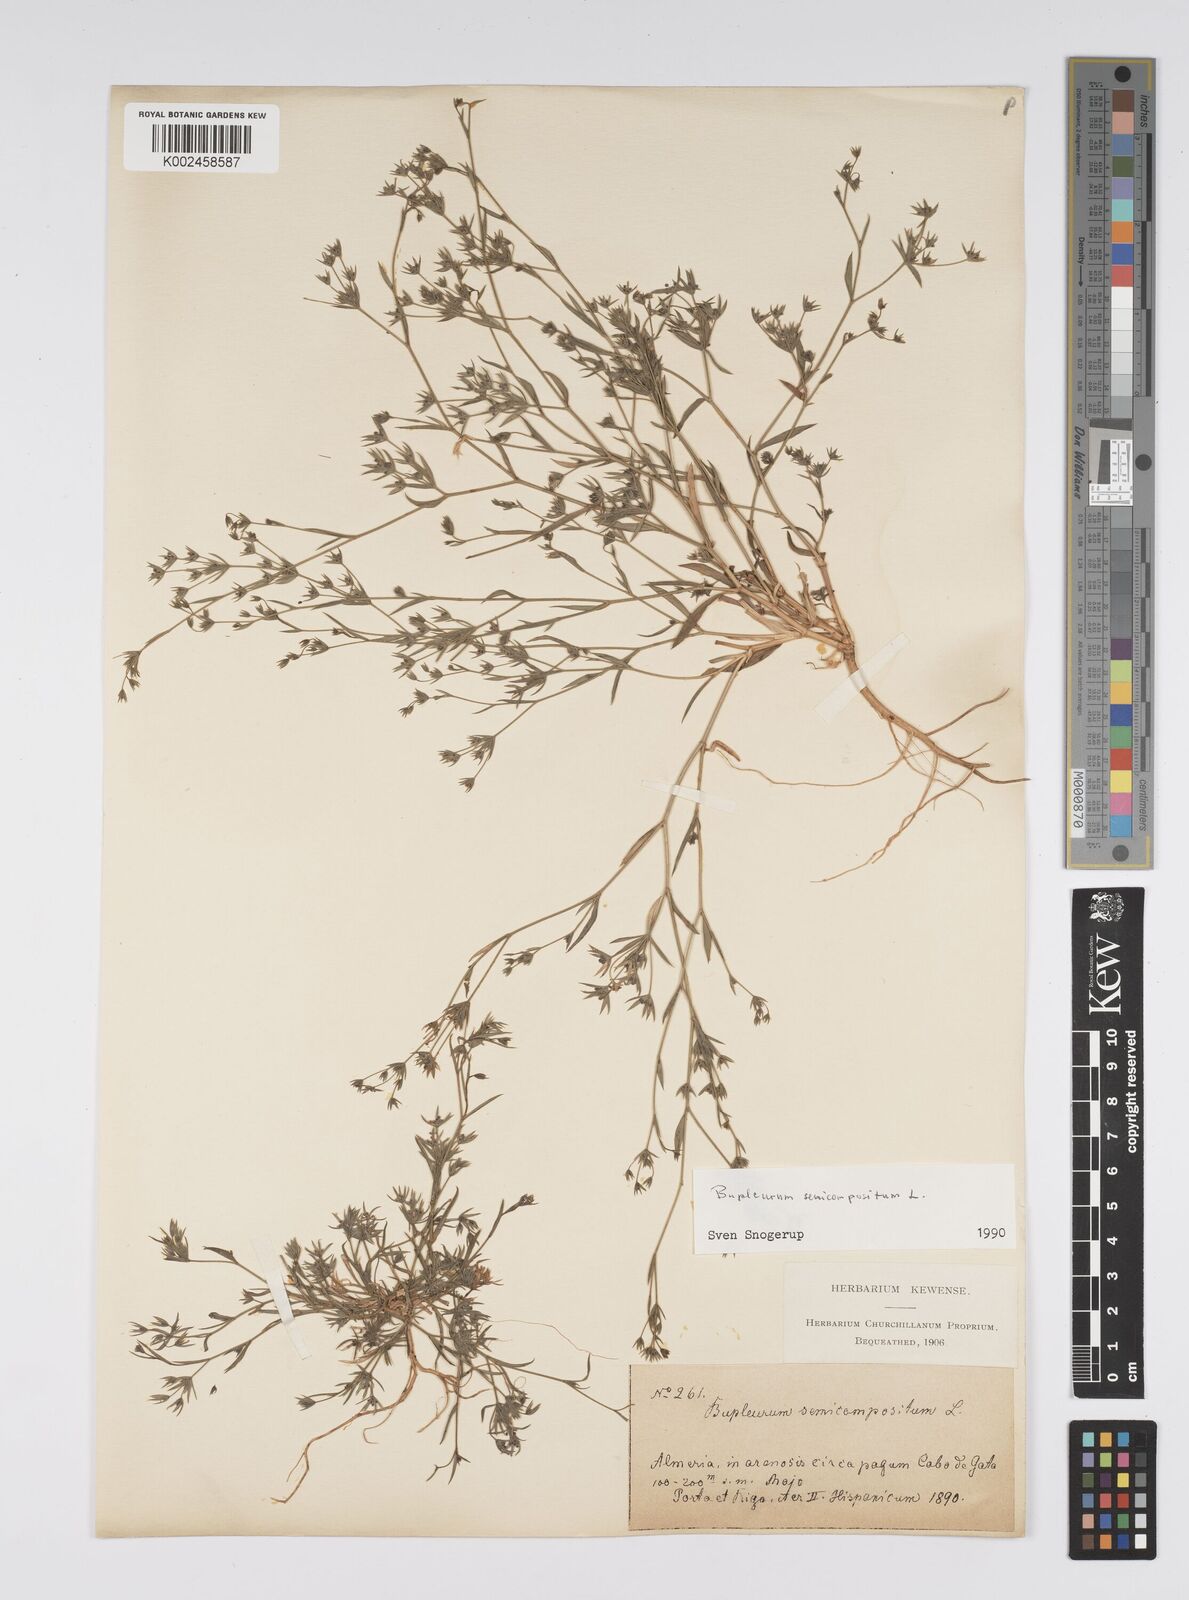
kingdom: Plantae
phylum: Tracheophyta
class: Magnoliopsida
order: Apiales
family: Apiaceae
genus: Bupleurum
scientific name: Bupleurum semicompositum
